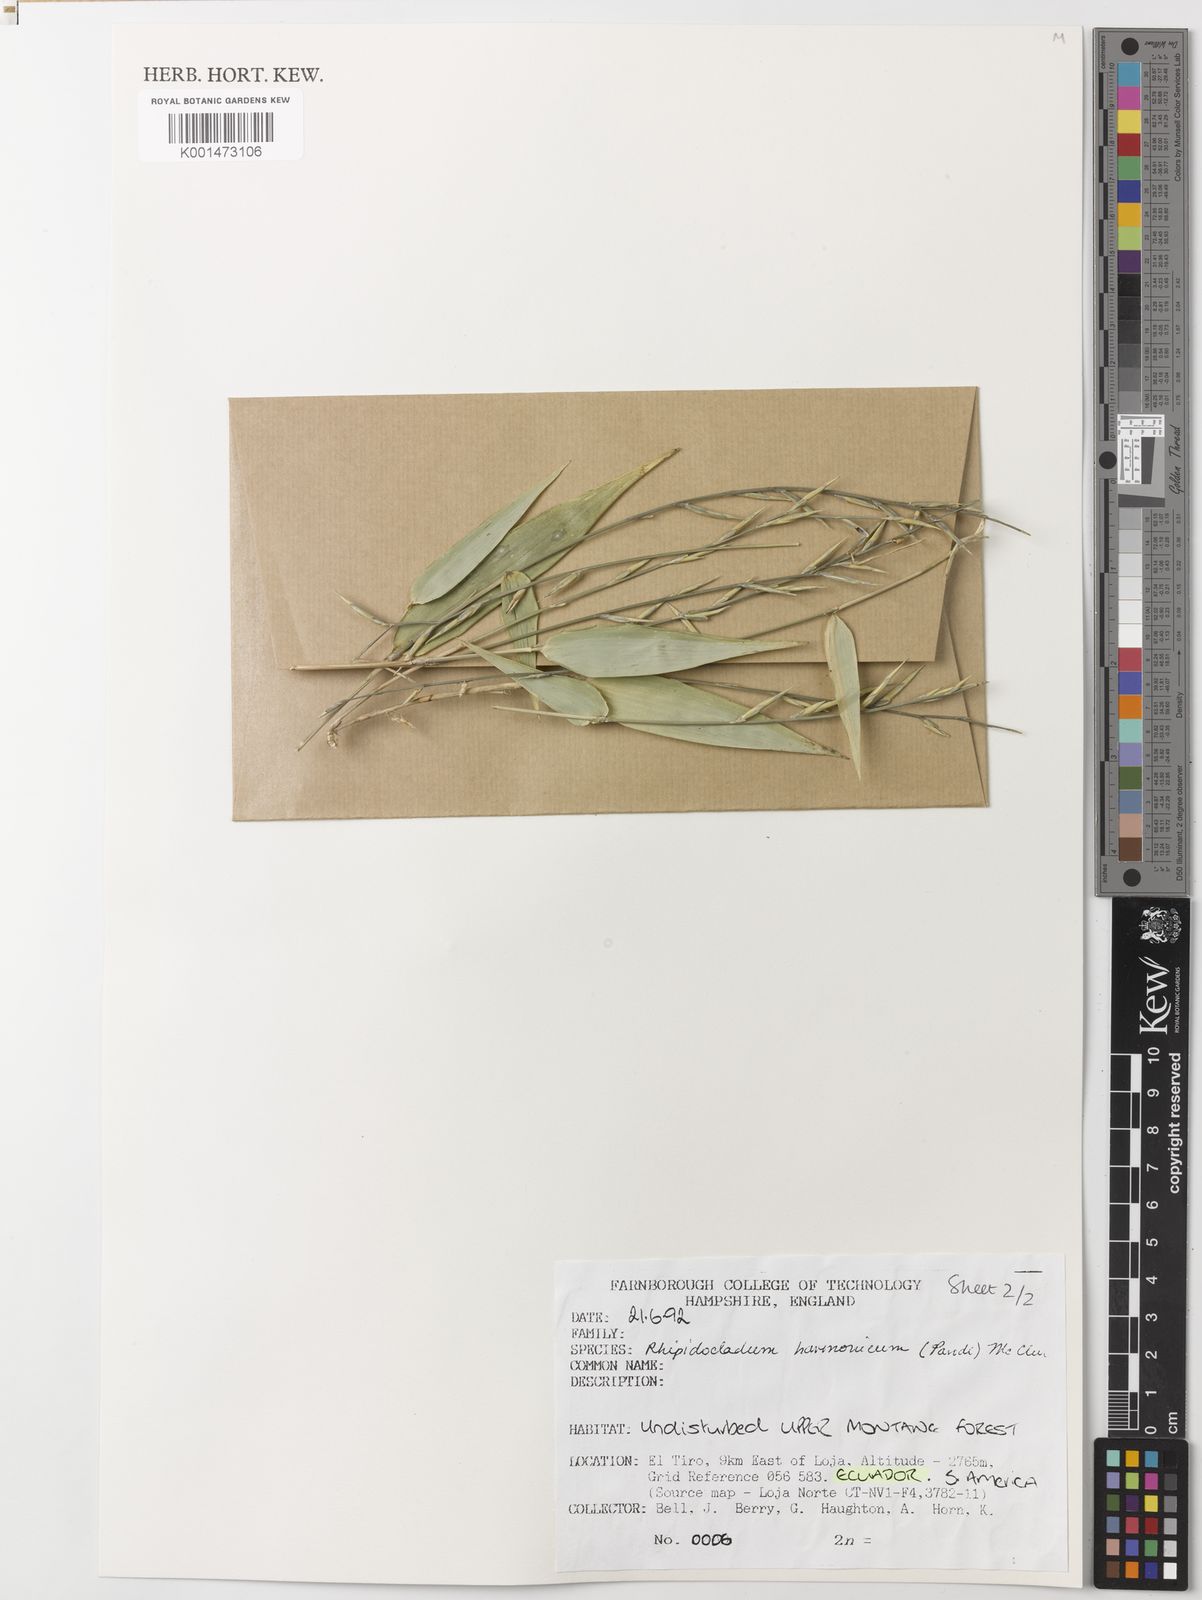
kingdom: Plantae
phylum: Tracheophyta
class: Liliopsida
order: Poales
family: Poaceae
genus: Rhipidocladum
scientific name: Rhipidocladum harmonicum
